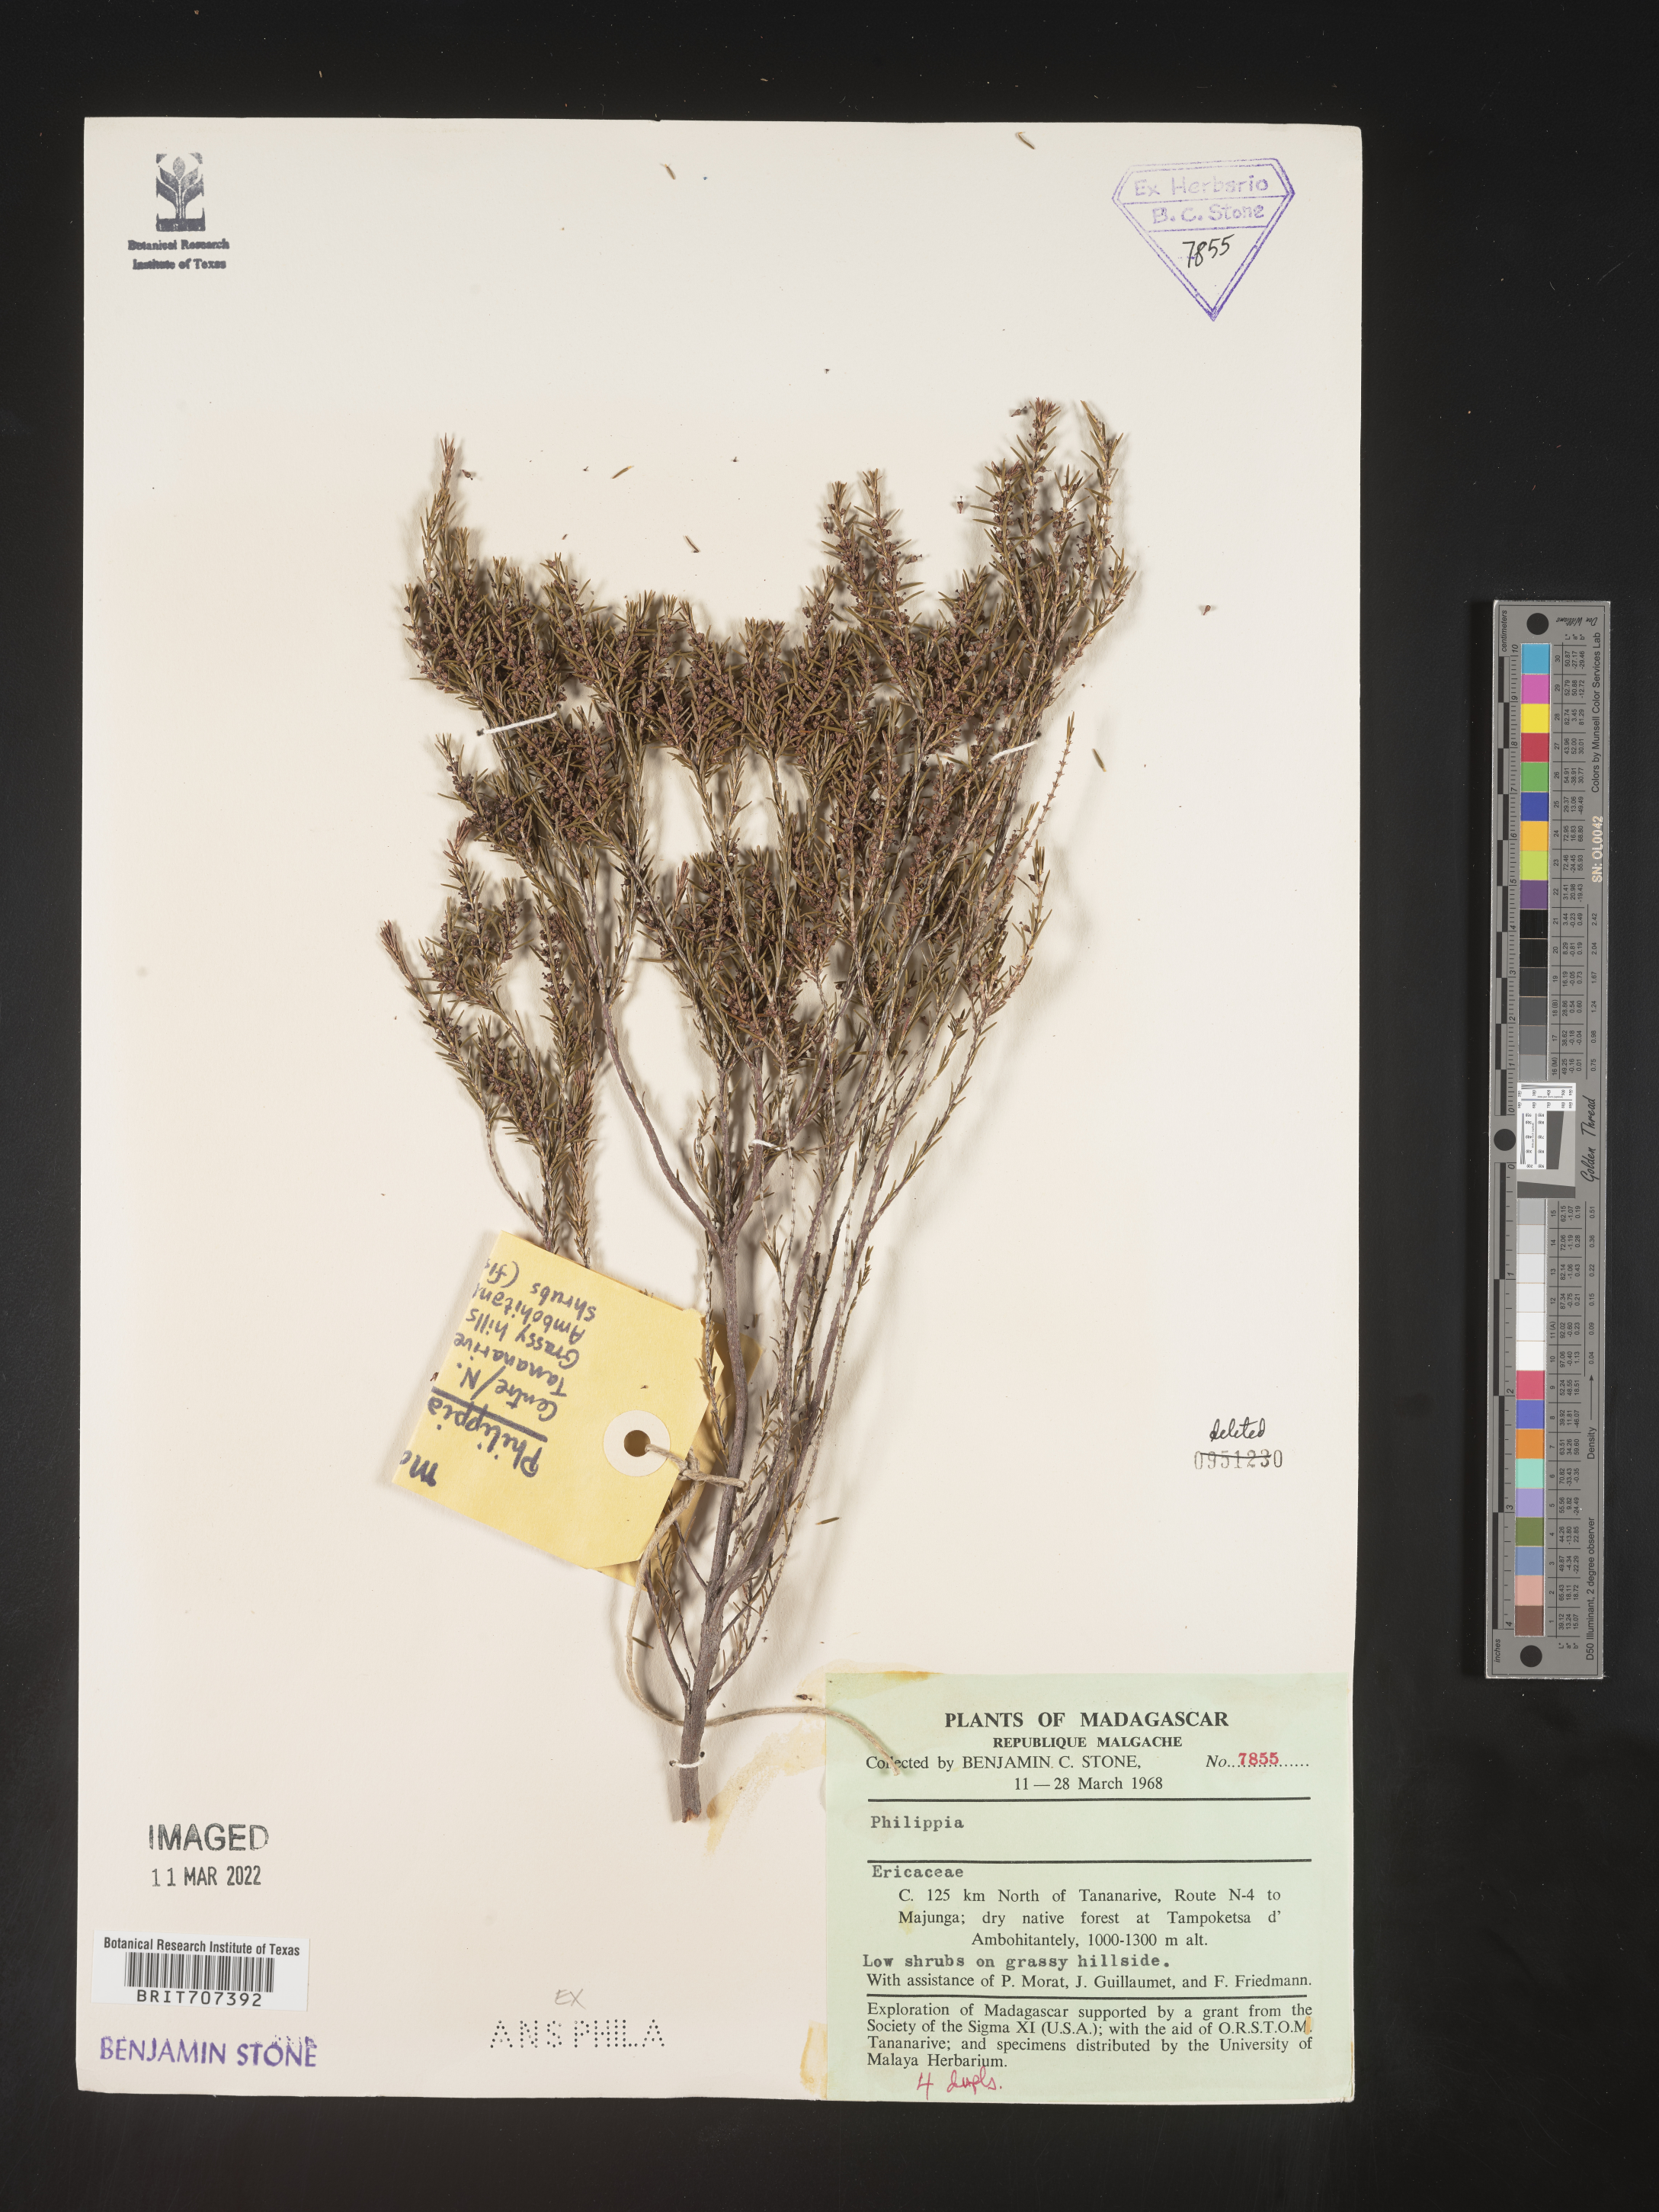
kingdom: Plantae
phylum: Tracheophyta
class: Magnoliopsida
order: Ericales
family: Ericaceae
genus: Erica
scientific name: Erica
